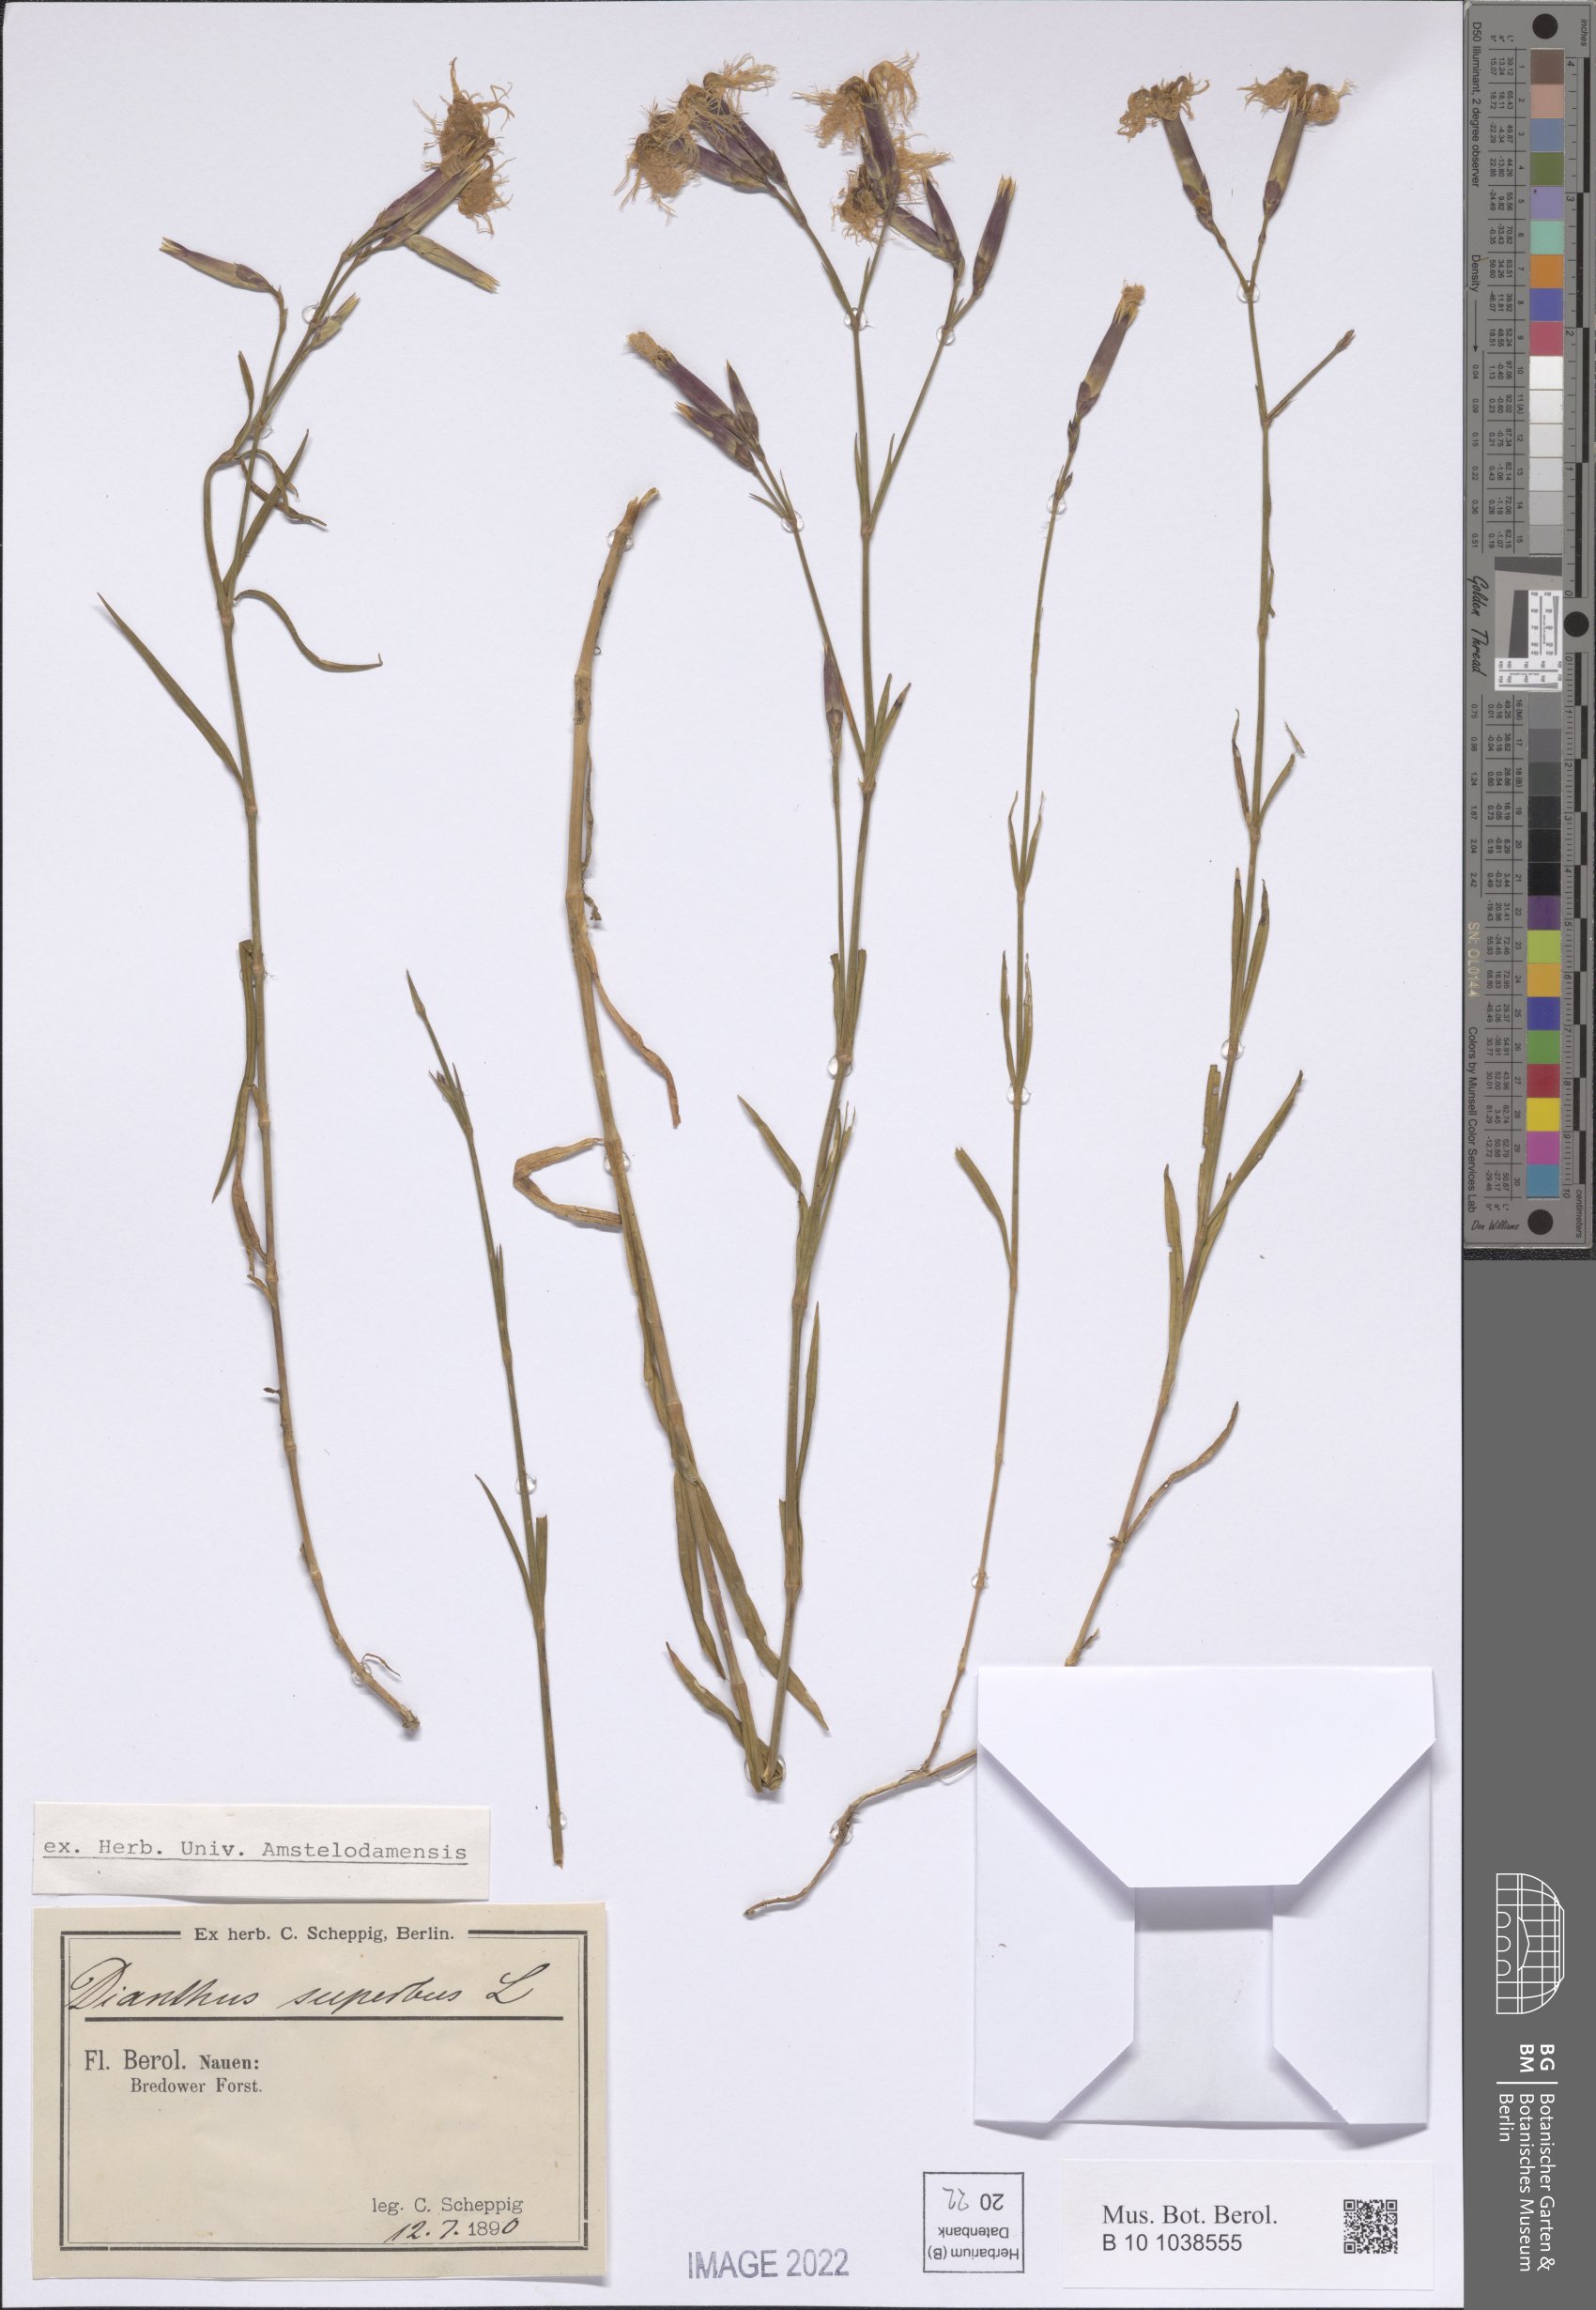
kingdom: Plantae
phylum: Tracheophyta
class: Magnoliopsida
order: Caryophyllales
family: Caryophyllaceae
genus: Dianthus
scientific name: Dianthus superbus
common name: Fringed pink
